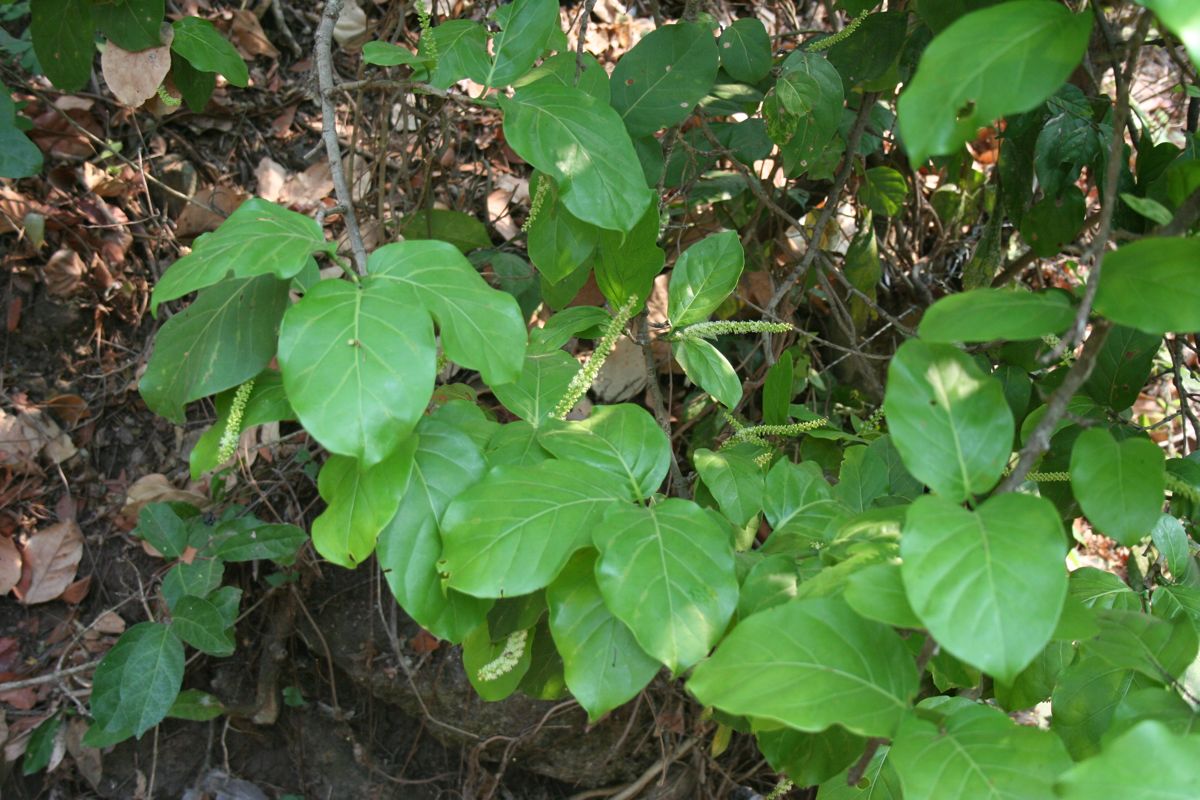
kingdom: Plantae
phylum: Tracheophyta
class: Magnoliopsida
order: Caryophyllales
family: Polygonaceae
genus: Coccoloba
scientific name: Coccoloba
